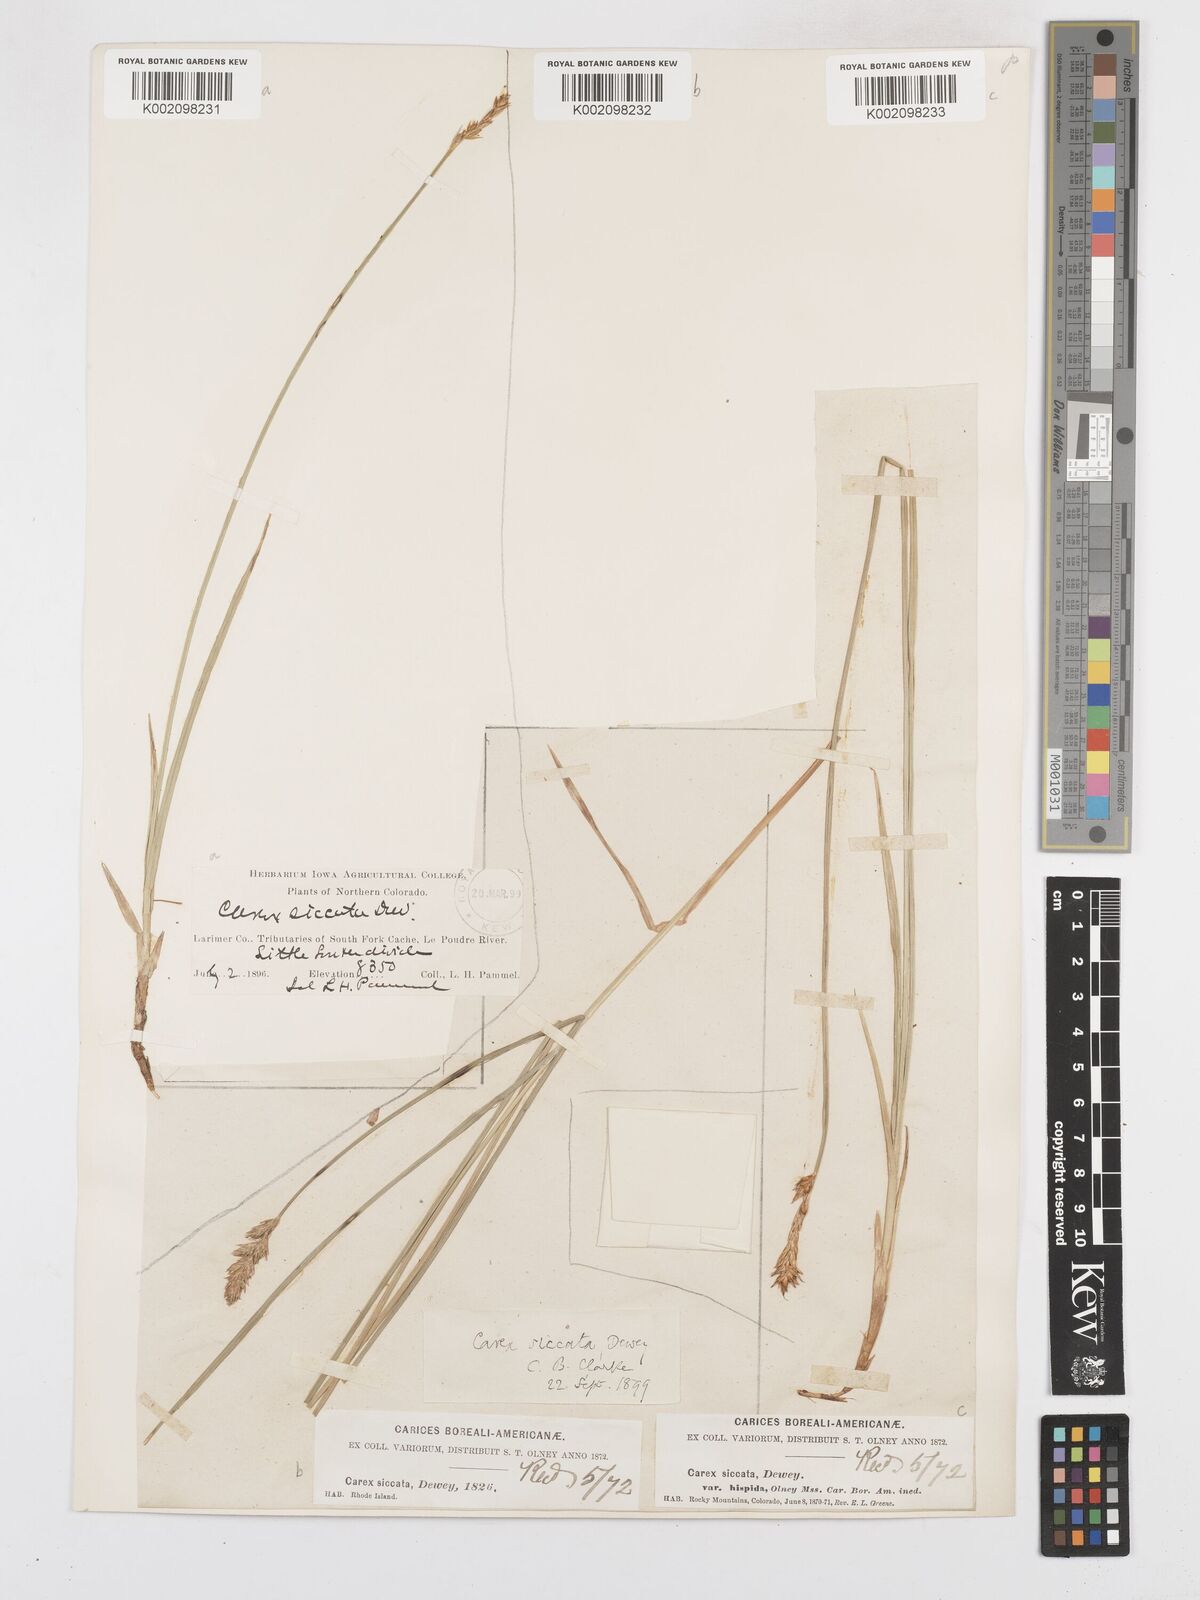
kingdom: Plantae
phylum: Tracheophyta
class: Liliopsida
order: Poales
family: Cyperaceae
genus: Carex
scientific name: Carex foenea
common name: Bronze sedge
